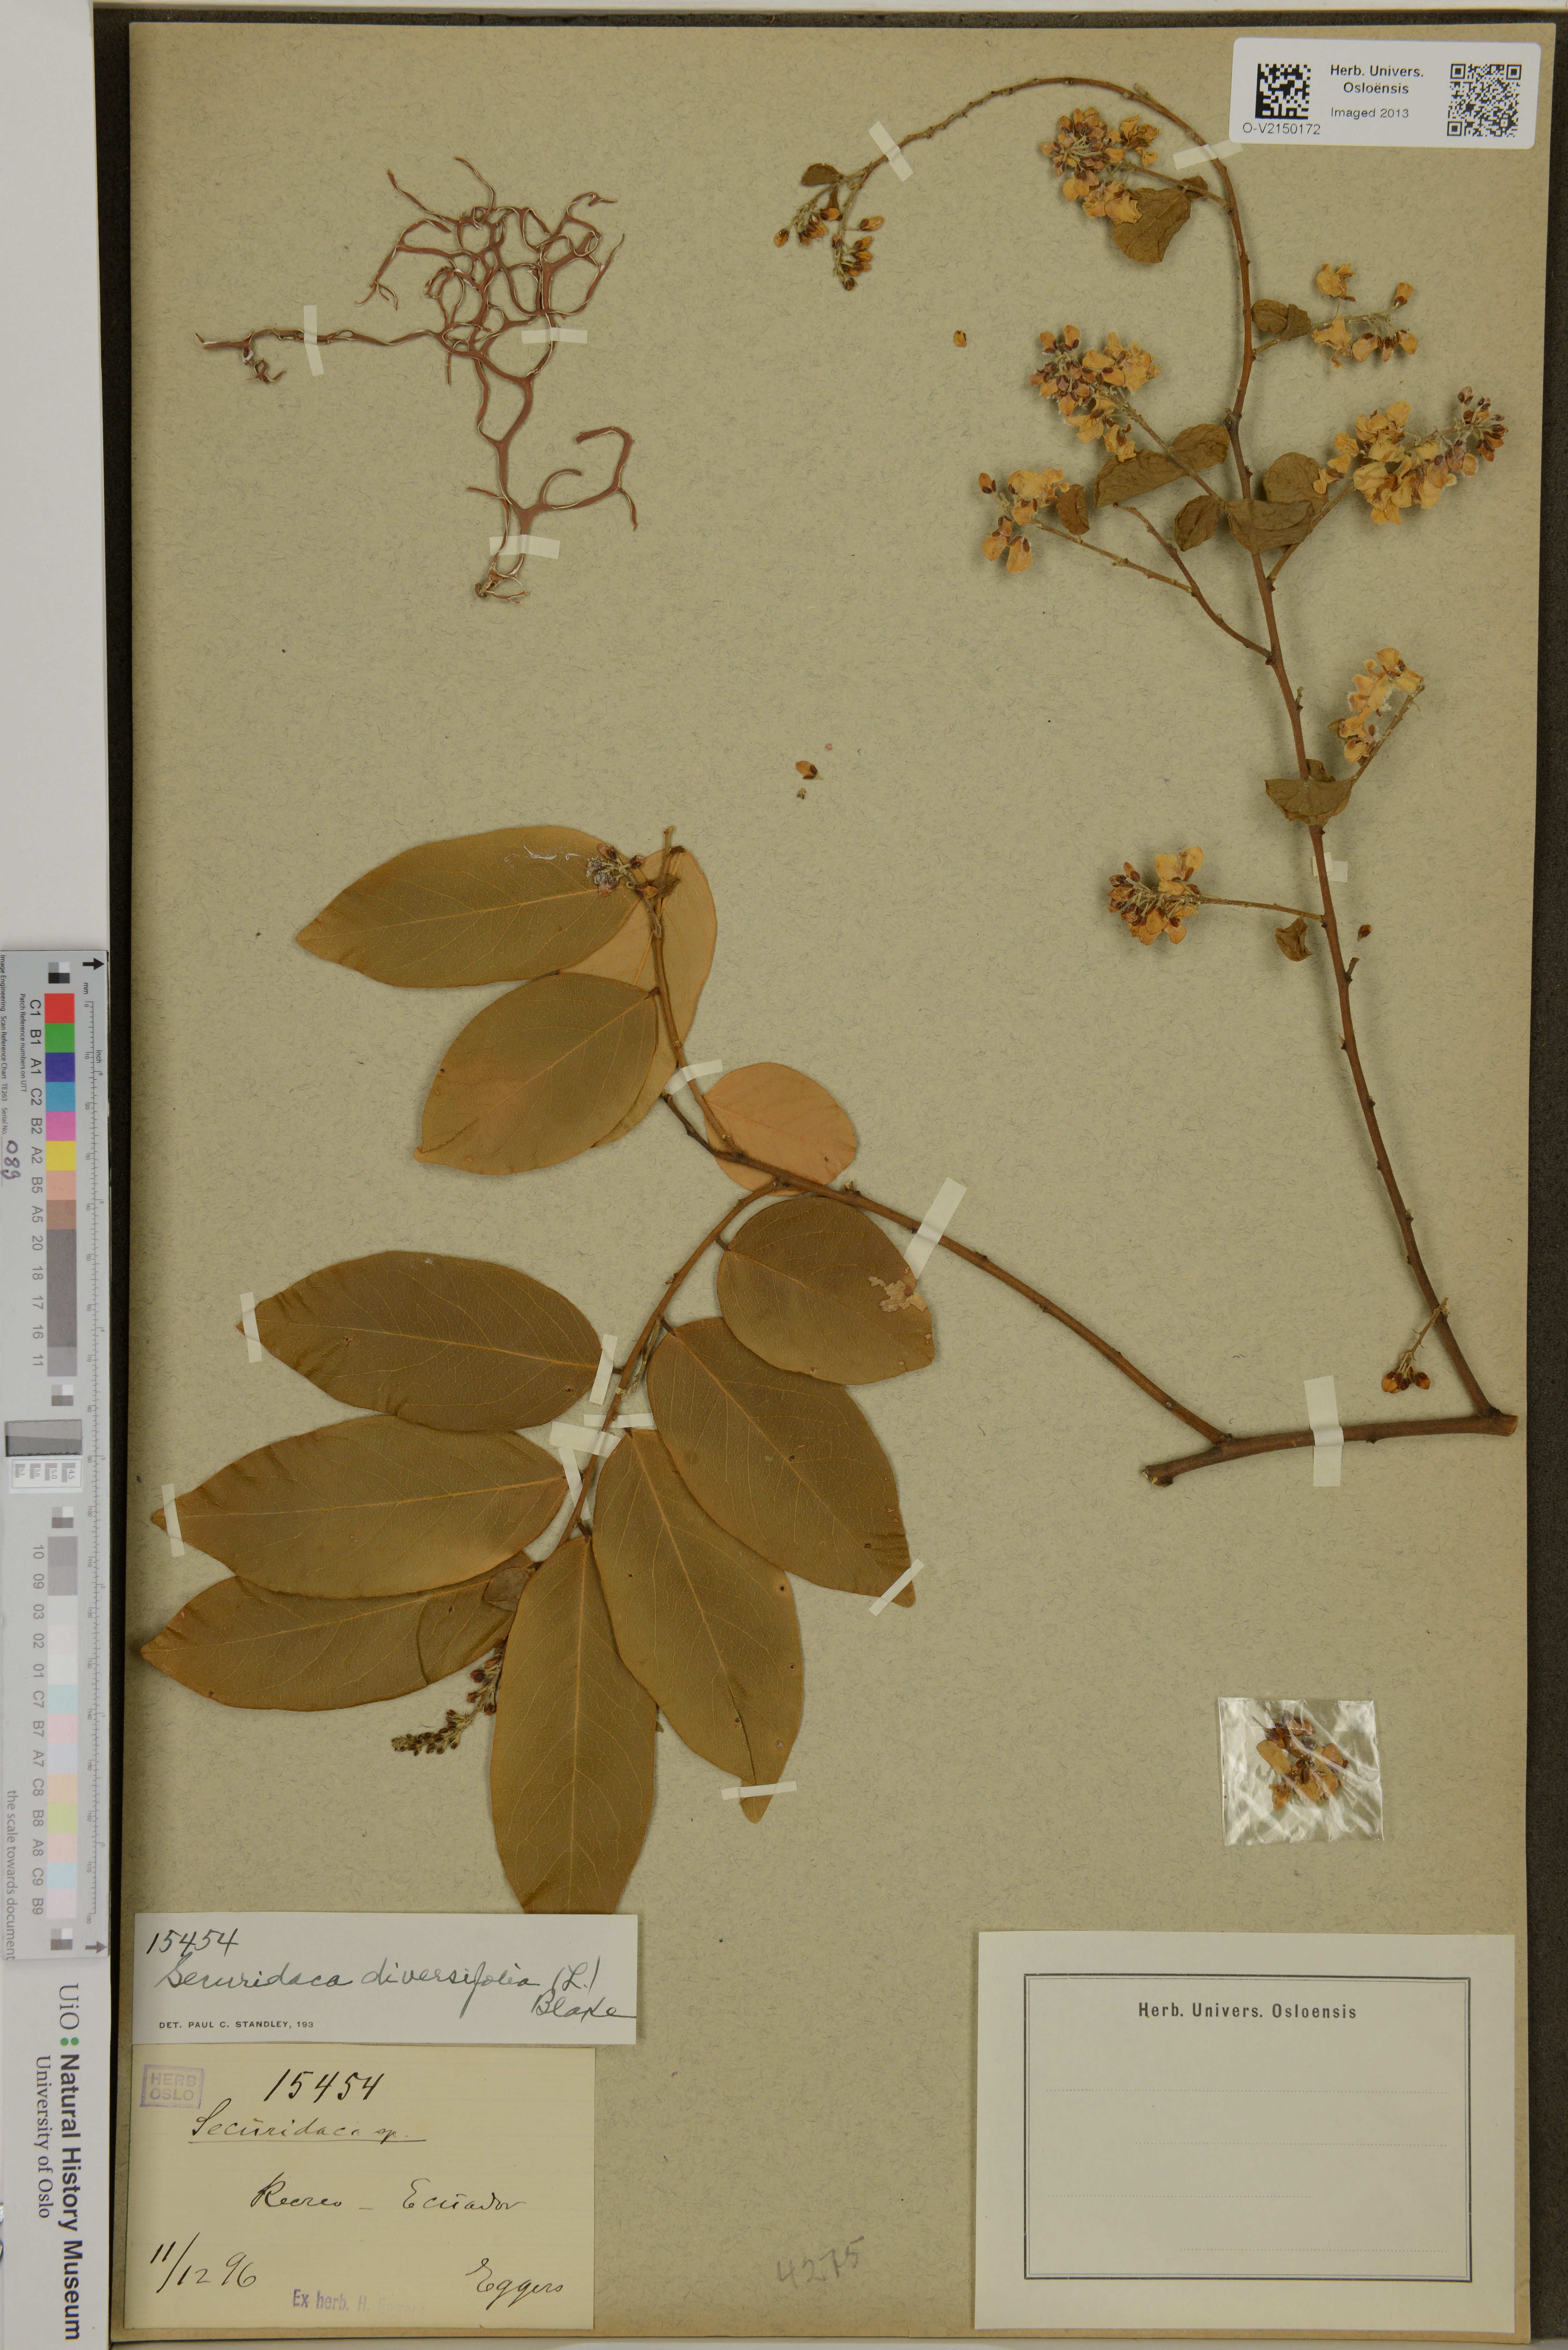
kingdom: Plantae
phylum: Tracheophyta
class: Magnoliopsida
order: Fabales
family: Polygalaceae
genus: Securidaca
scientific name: Securidaca diversifolia
